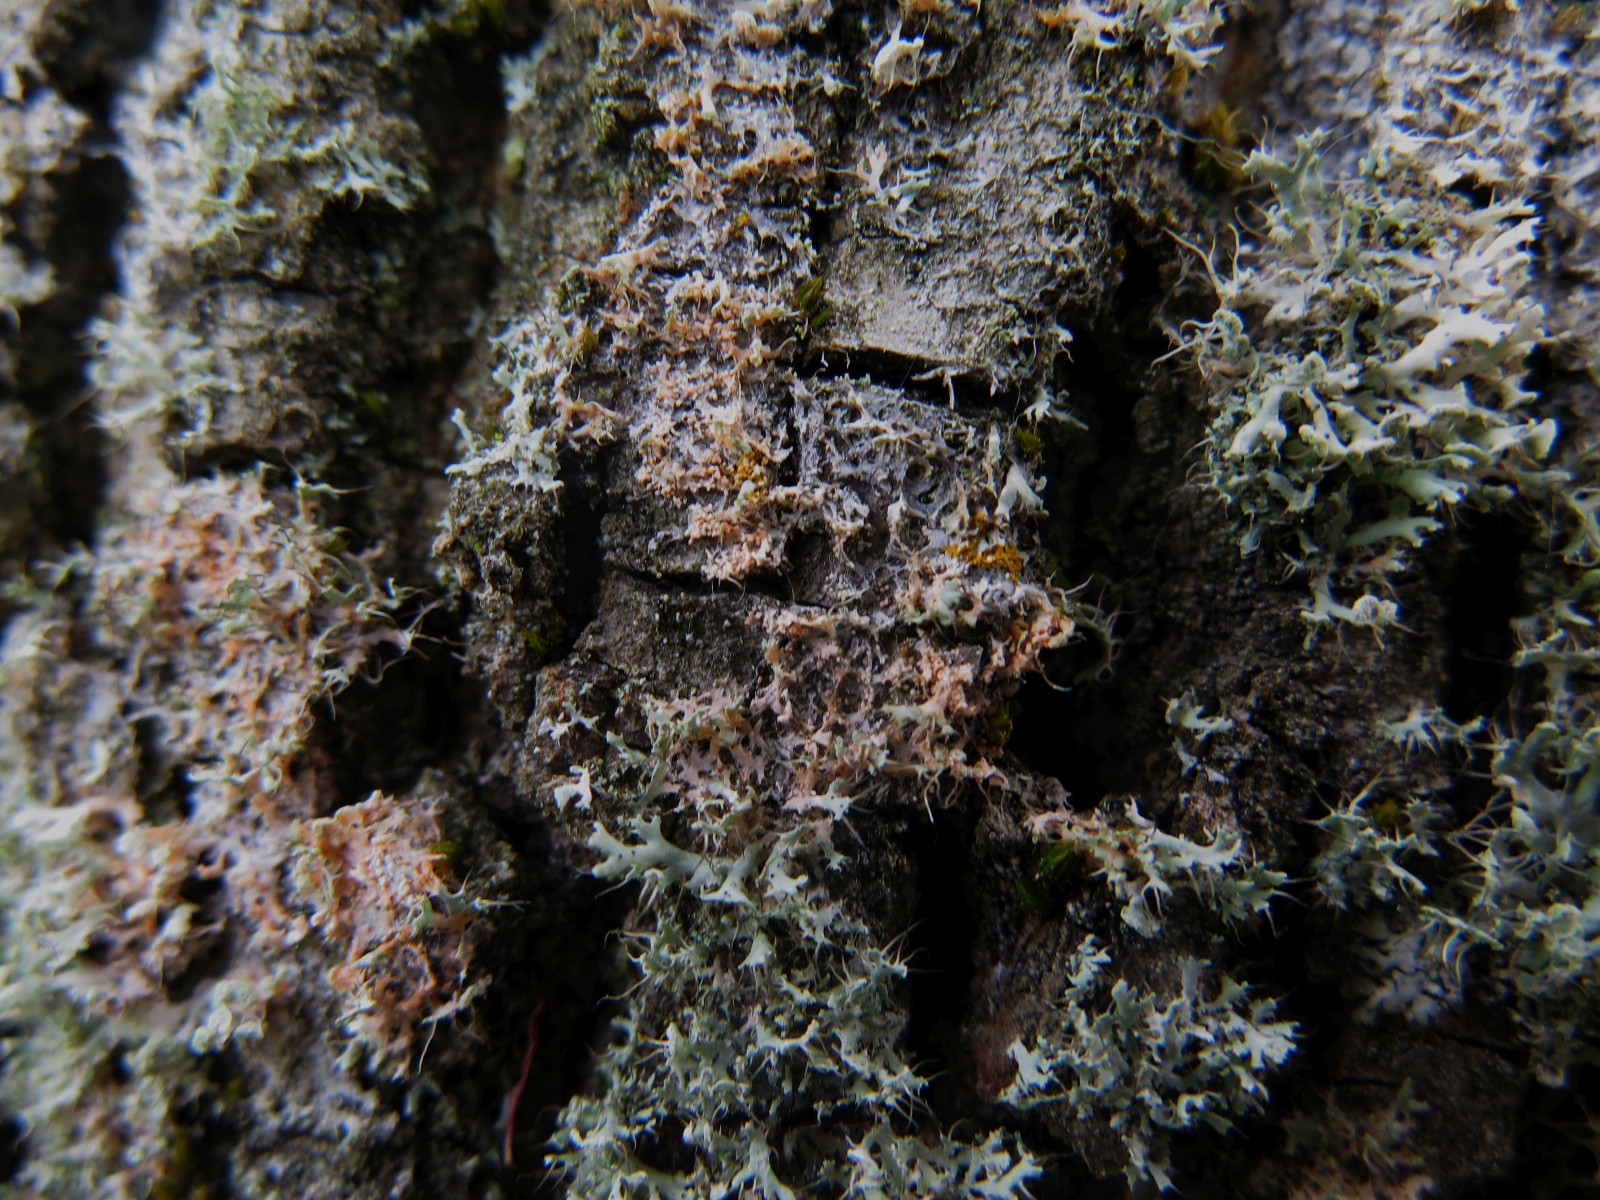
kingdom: Fungi
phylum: Basidiomycota
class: Agaricomycetes
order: Corticiales
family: Corticiaceae
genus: Erythricium
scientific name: Erythricium aurantiacum
